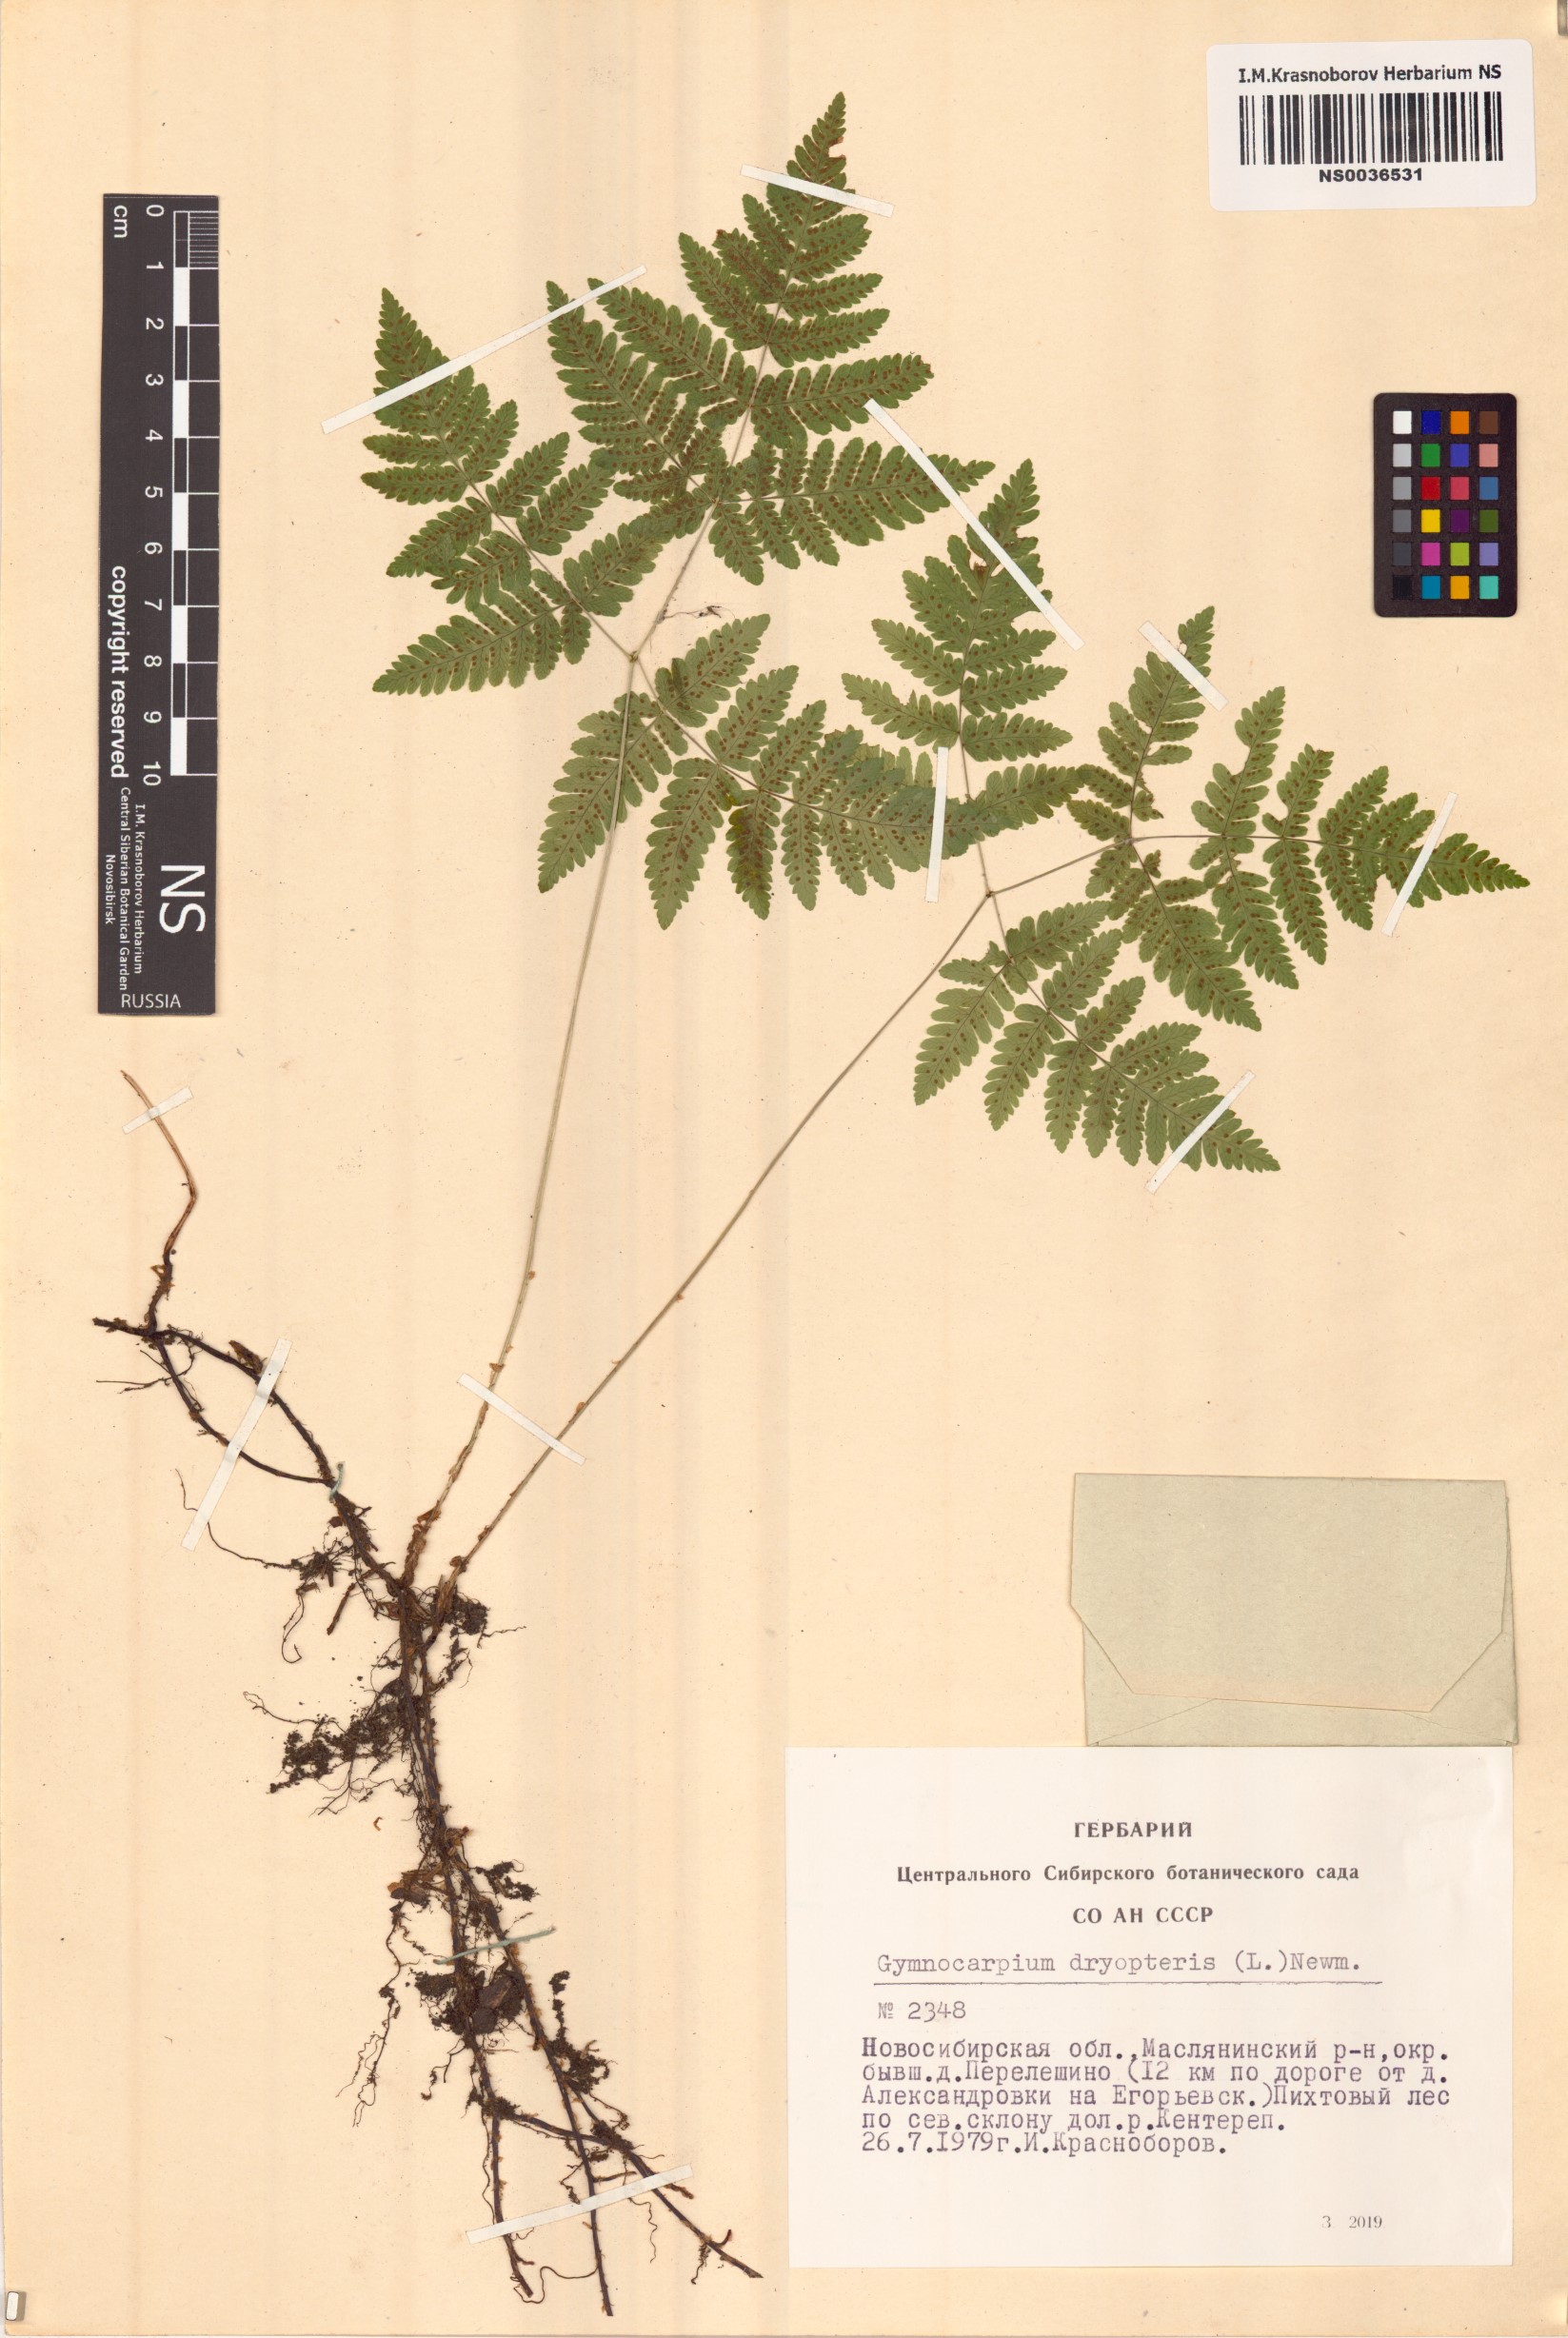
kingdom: Plantae
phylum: Tracheophyta
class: Polypodiopsida
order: Polypodiales
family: Cystopteridaceae
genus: Gymnocarpium
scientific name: Gymnocarpium dryopteris
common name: Oak fern
